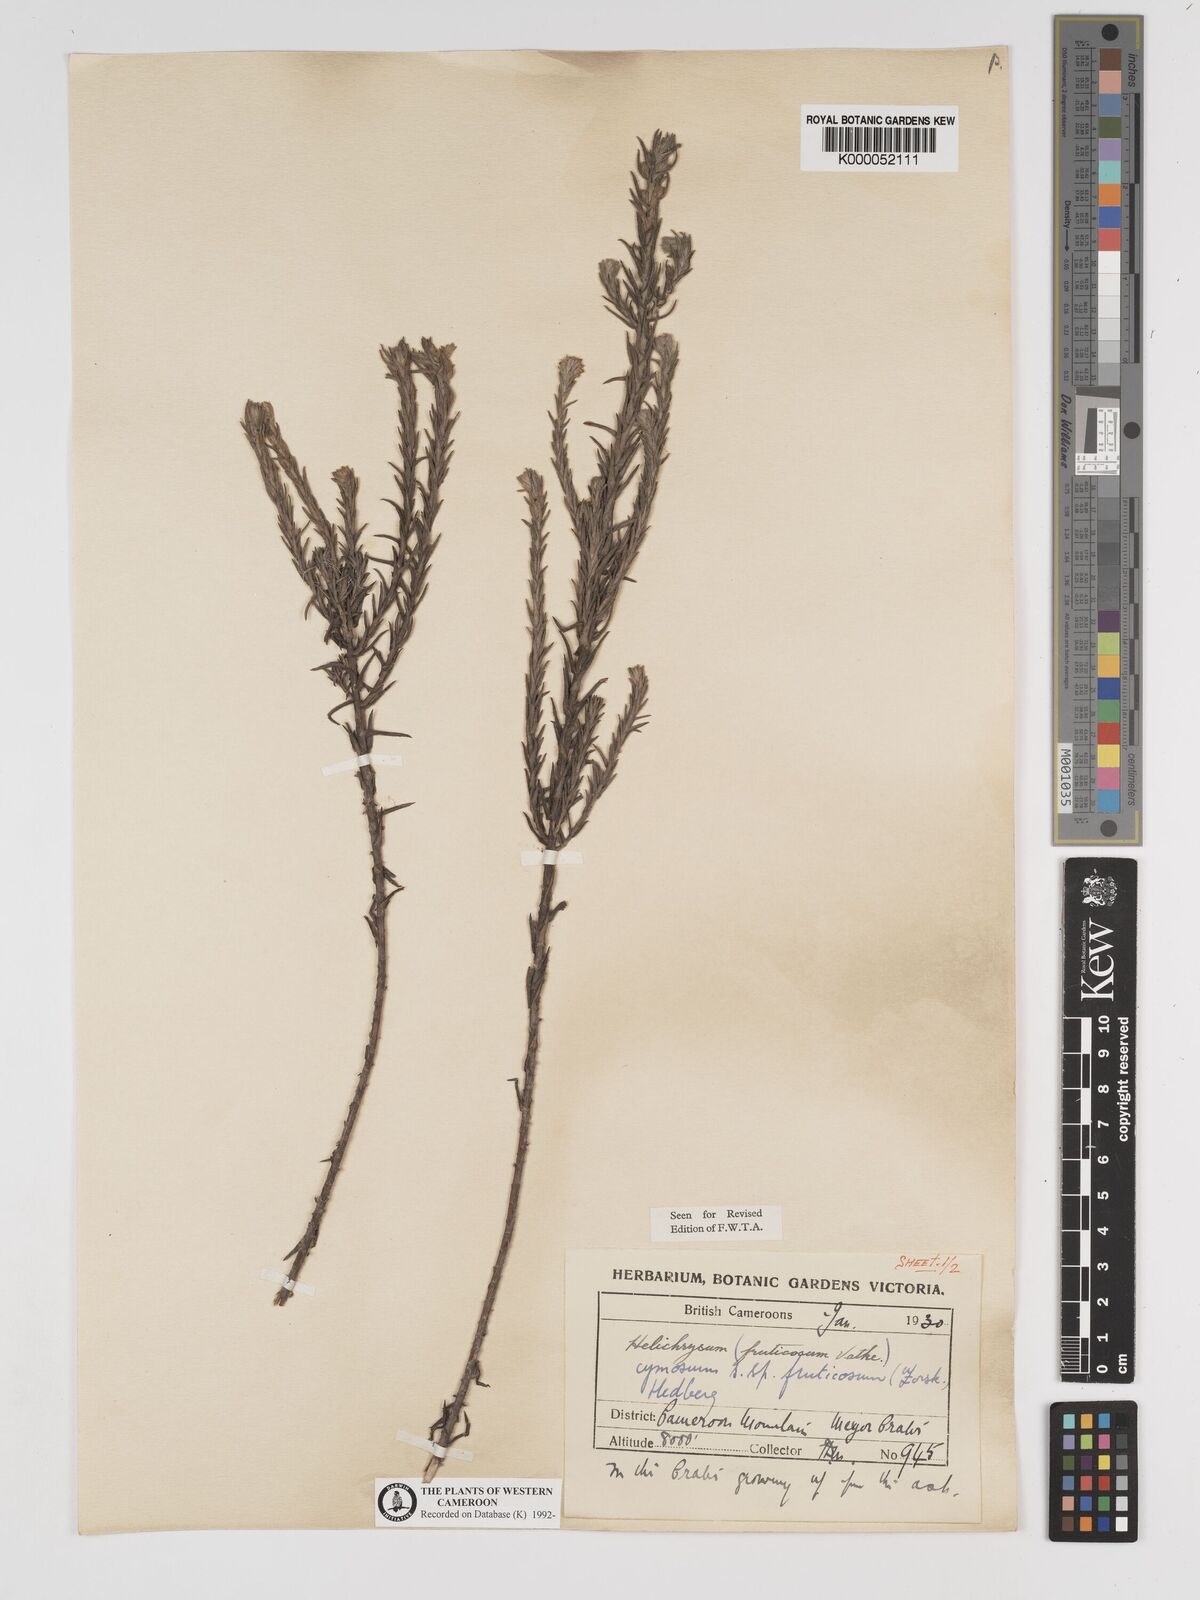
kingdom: Plantae
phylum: Tracheophyta
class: Magnoliopsida
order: Asterales
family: Asteraceae
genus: Helichrysum
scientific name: Helichrysum forskahlii
